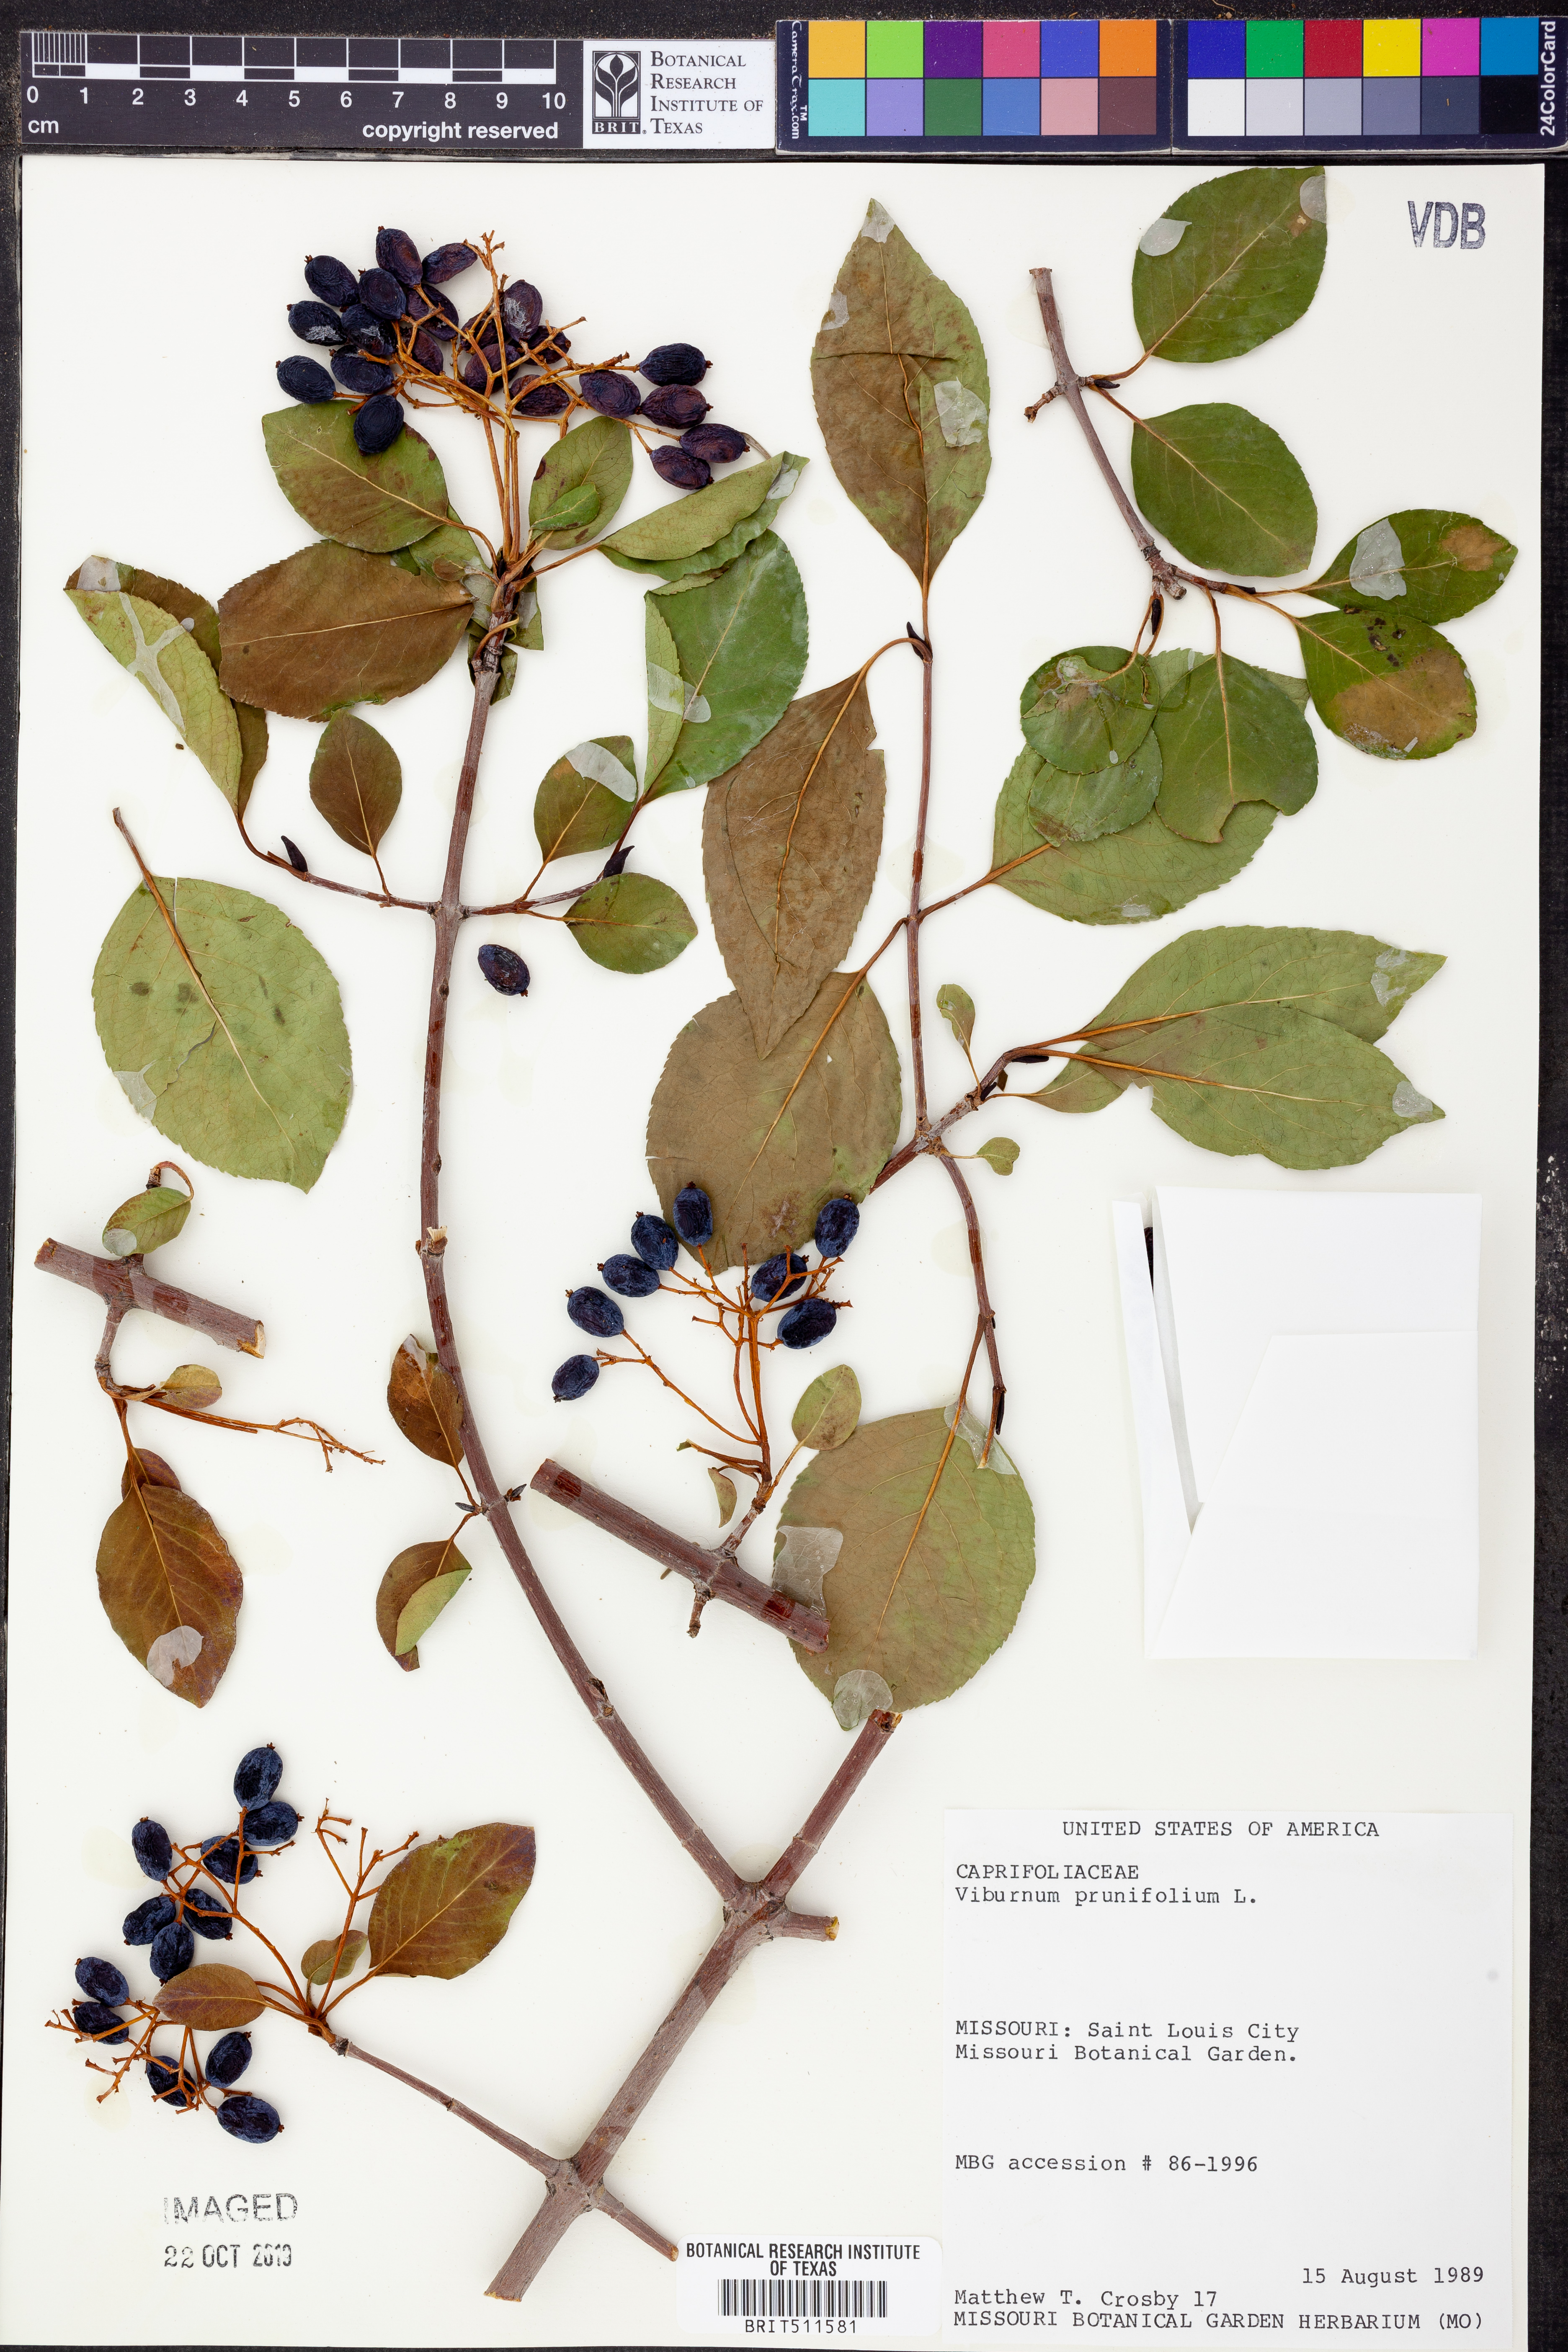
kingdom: Plantae
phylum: Tracheophyta
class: Magnoliopsida
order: Dipsacales
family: Viburnaceae
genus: Viburnum
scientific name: Viburnum prunifolium
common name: Black haw
